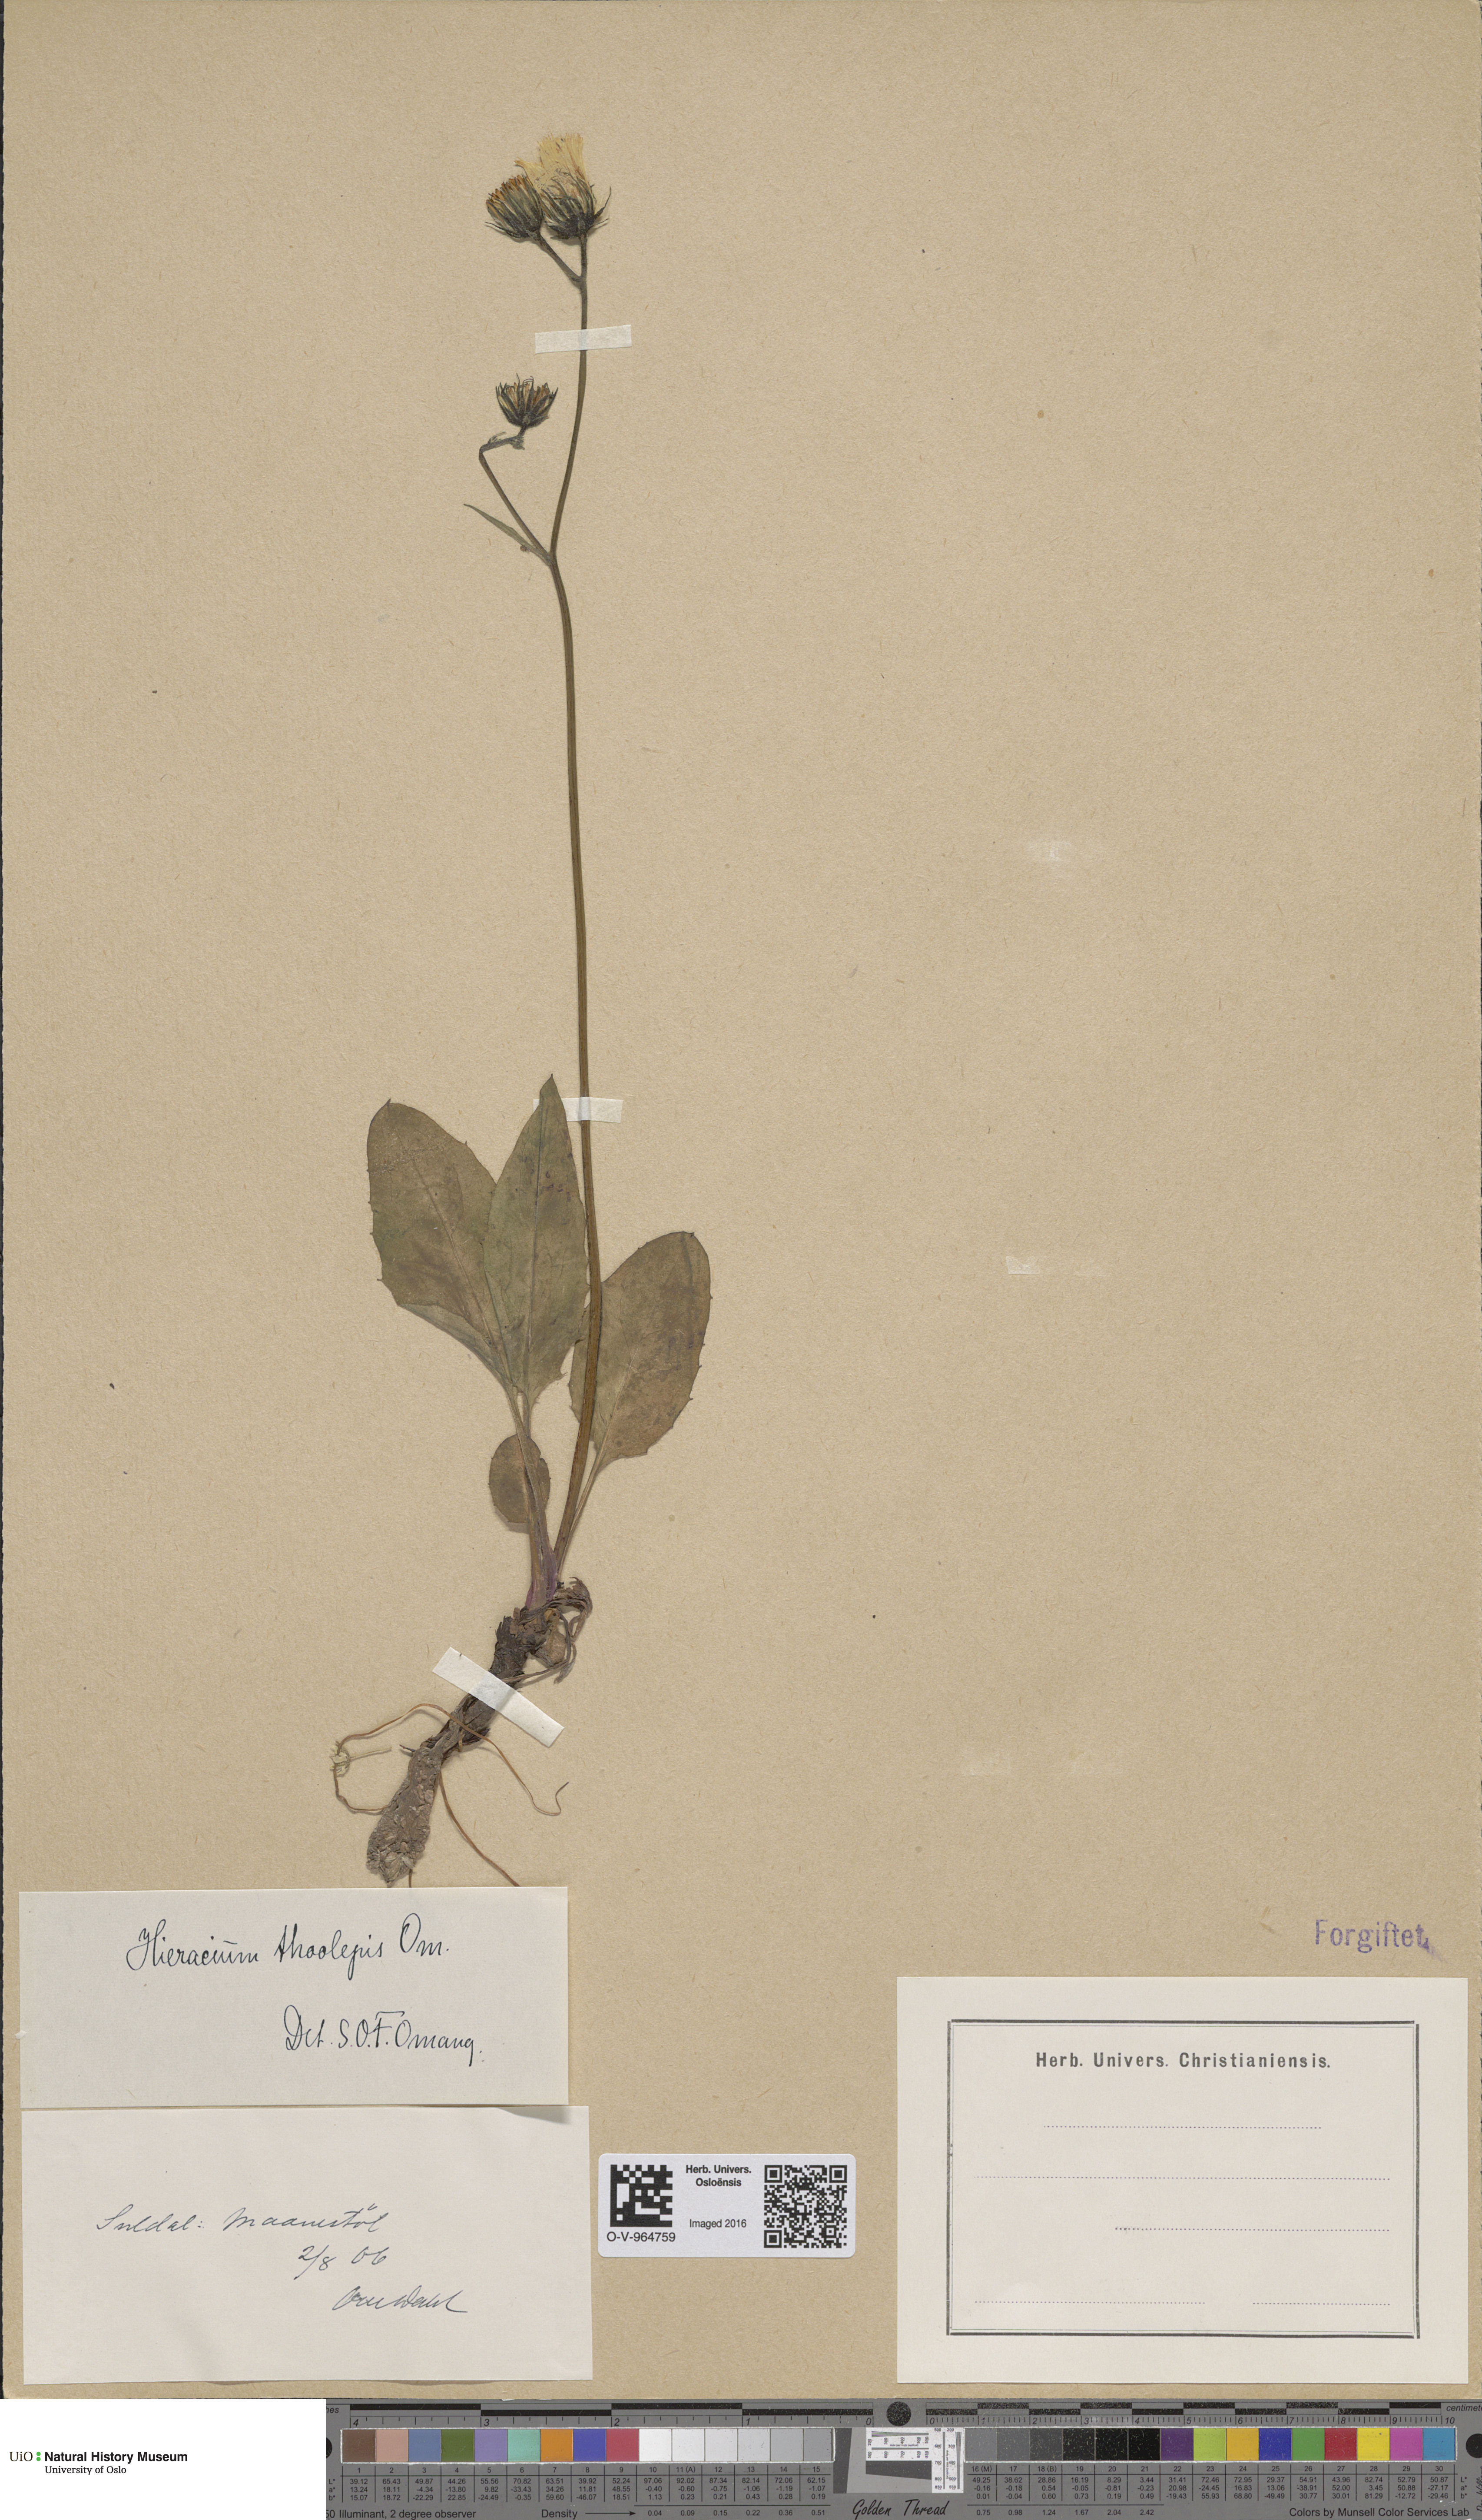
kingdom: Plantae
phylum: Tracheophyta
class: Magnoliopsida
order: Asterales
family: Asteraceae
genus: Hieracium
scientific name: Hieracium sommerfeltii
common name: Sommerfelt's hawkweed
